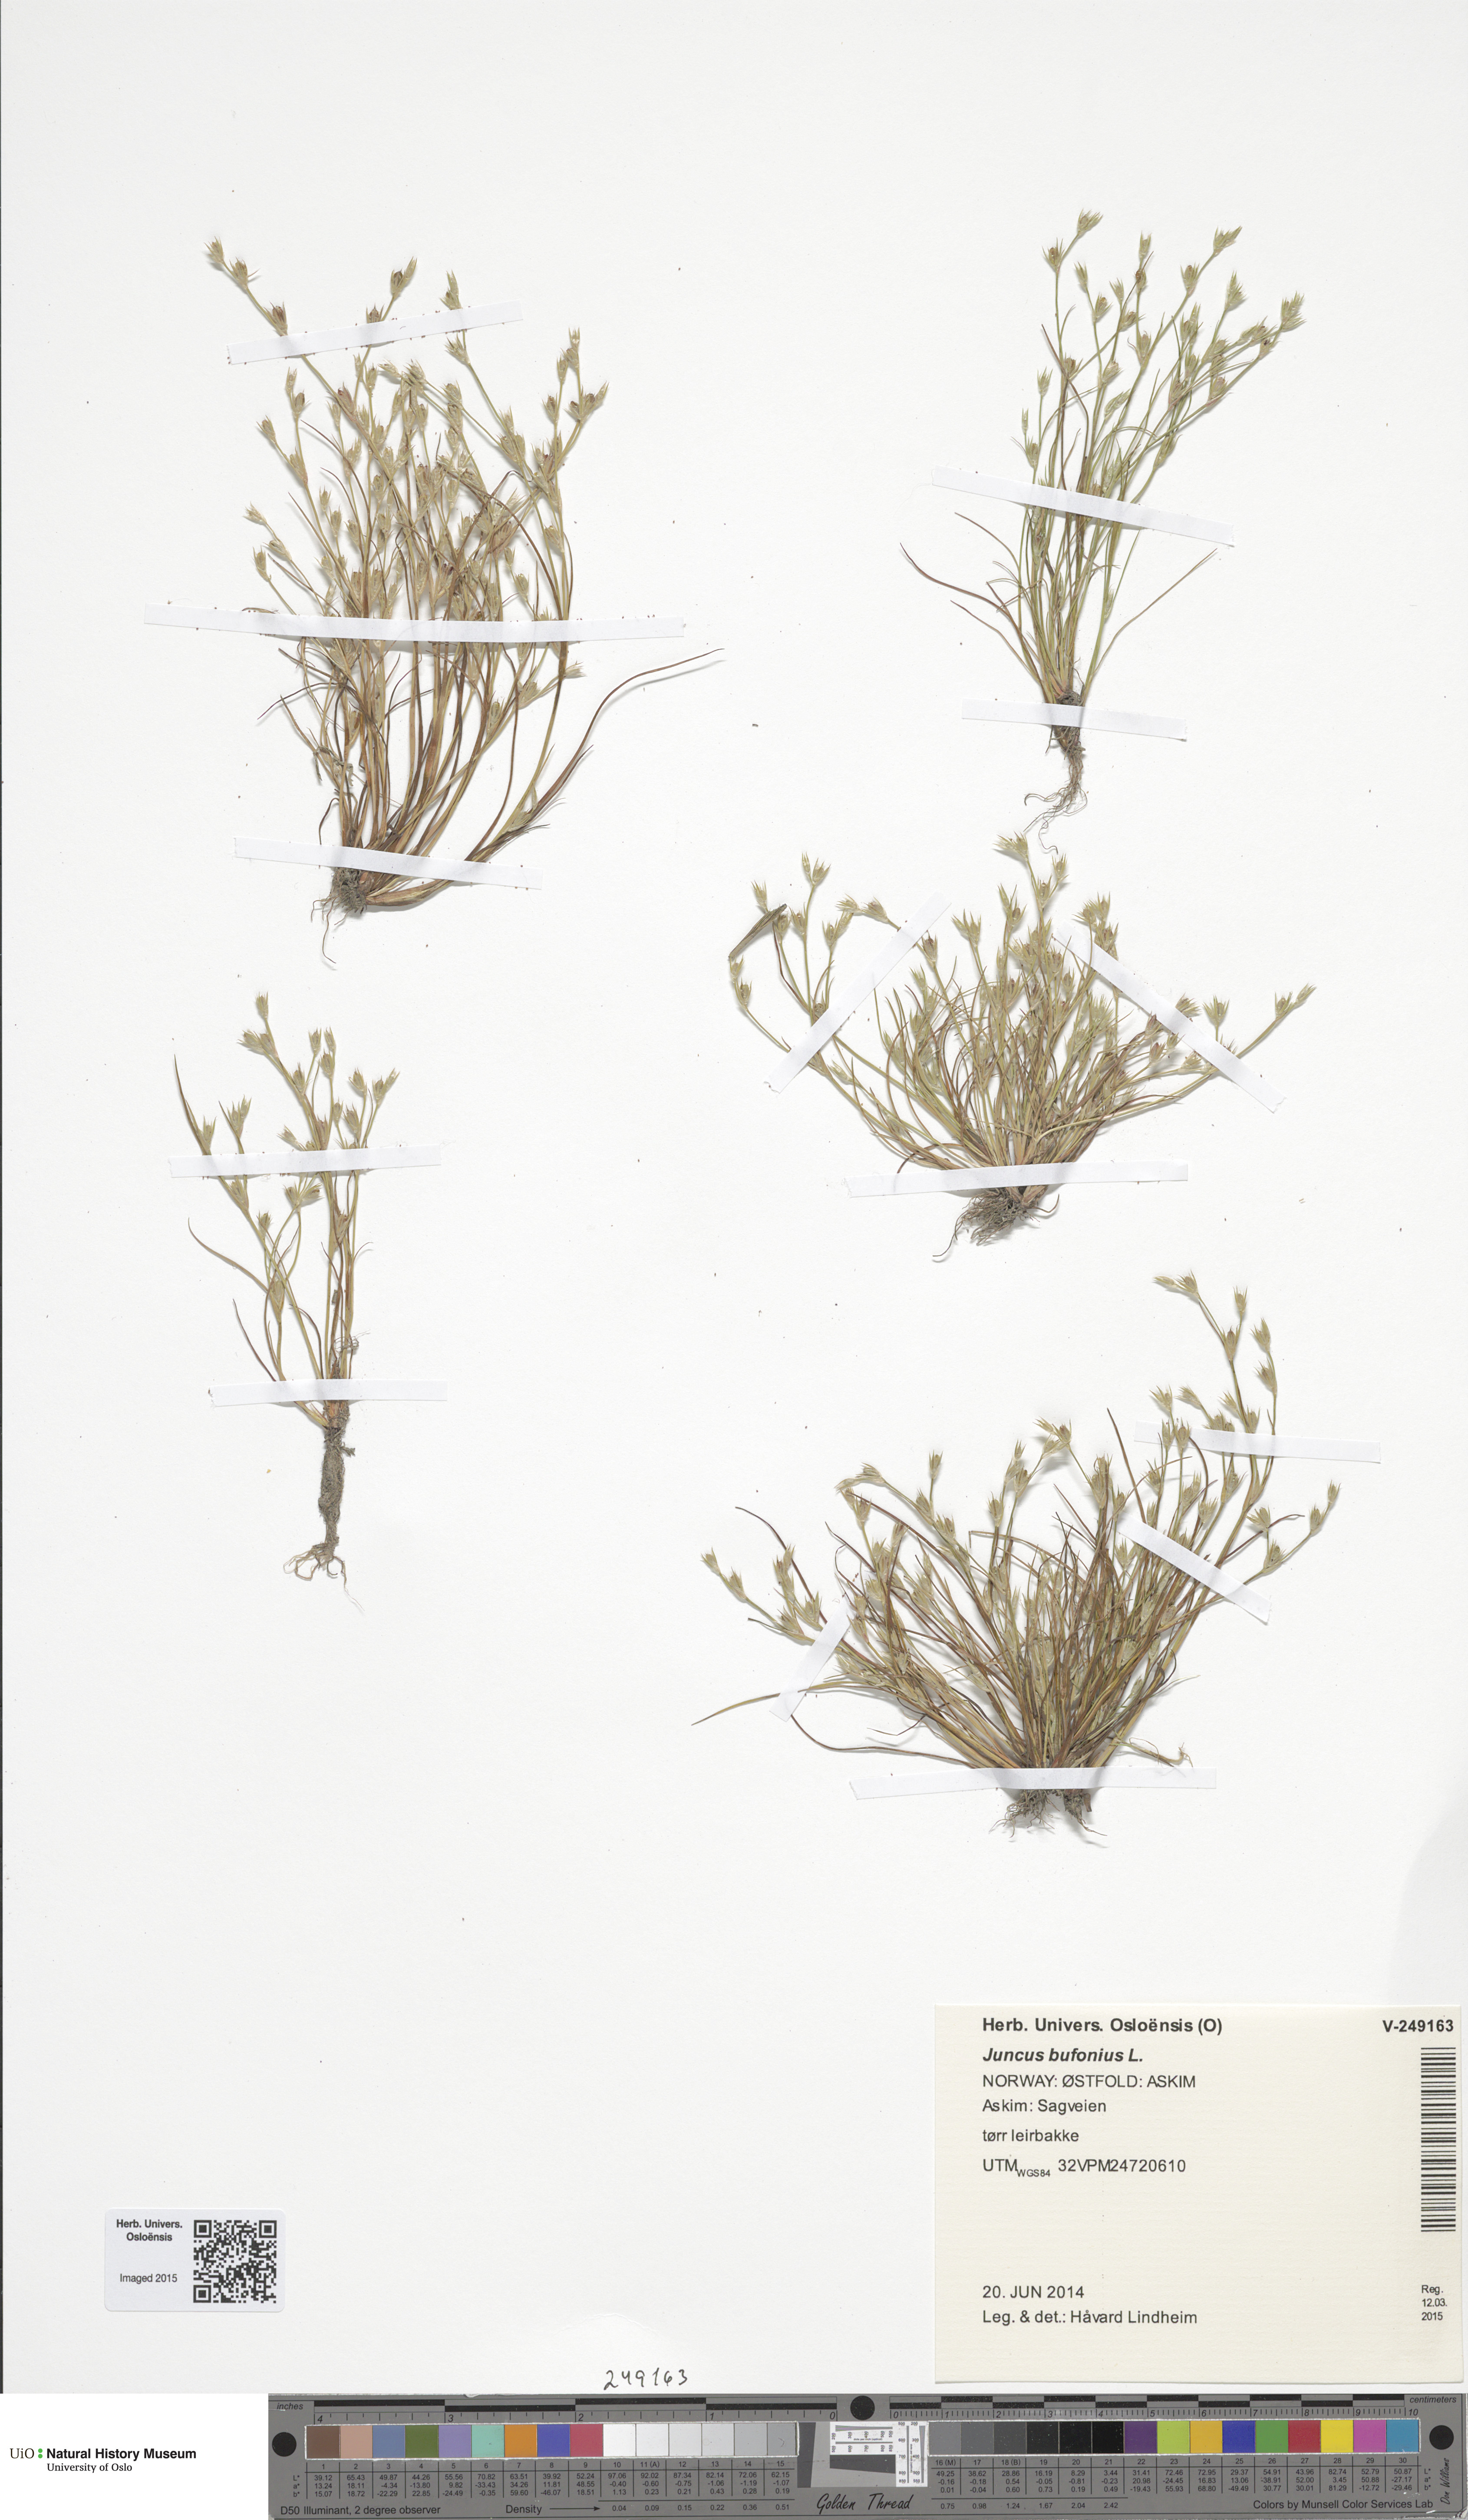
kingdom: Plantae
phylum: Tracheophyta
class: Liliopsida
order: Poales
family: Juncaceae
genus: Juncus
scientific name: Juncus bufonius
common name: Toad rush
